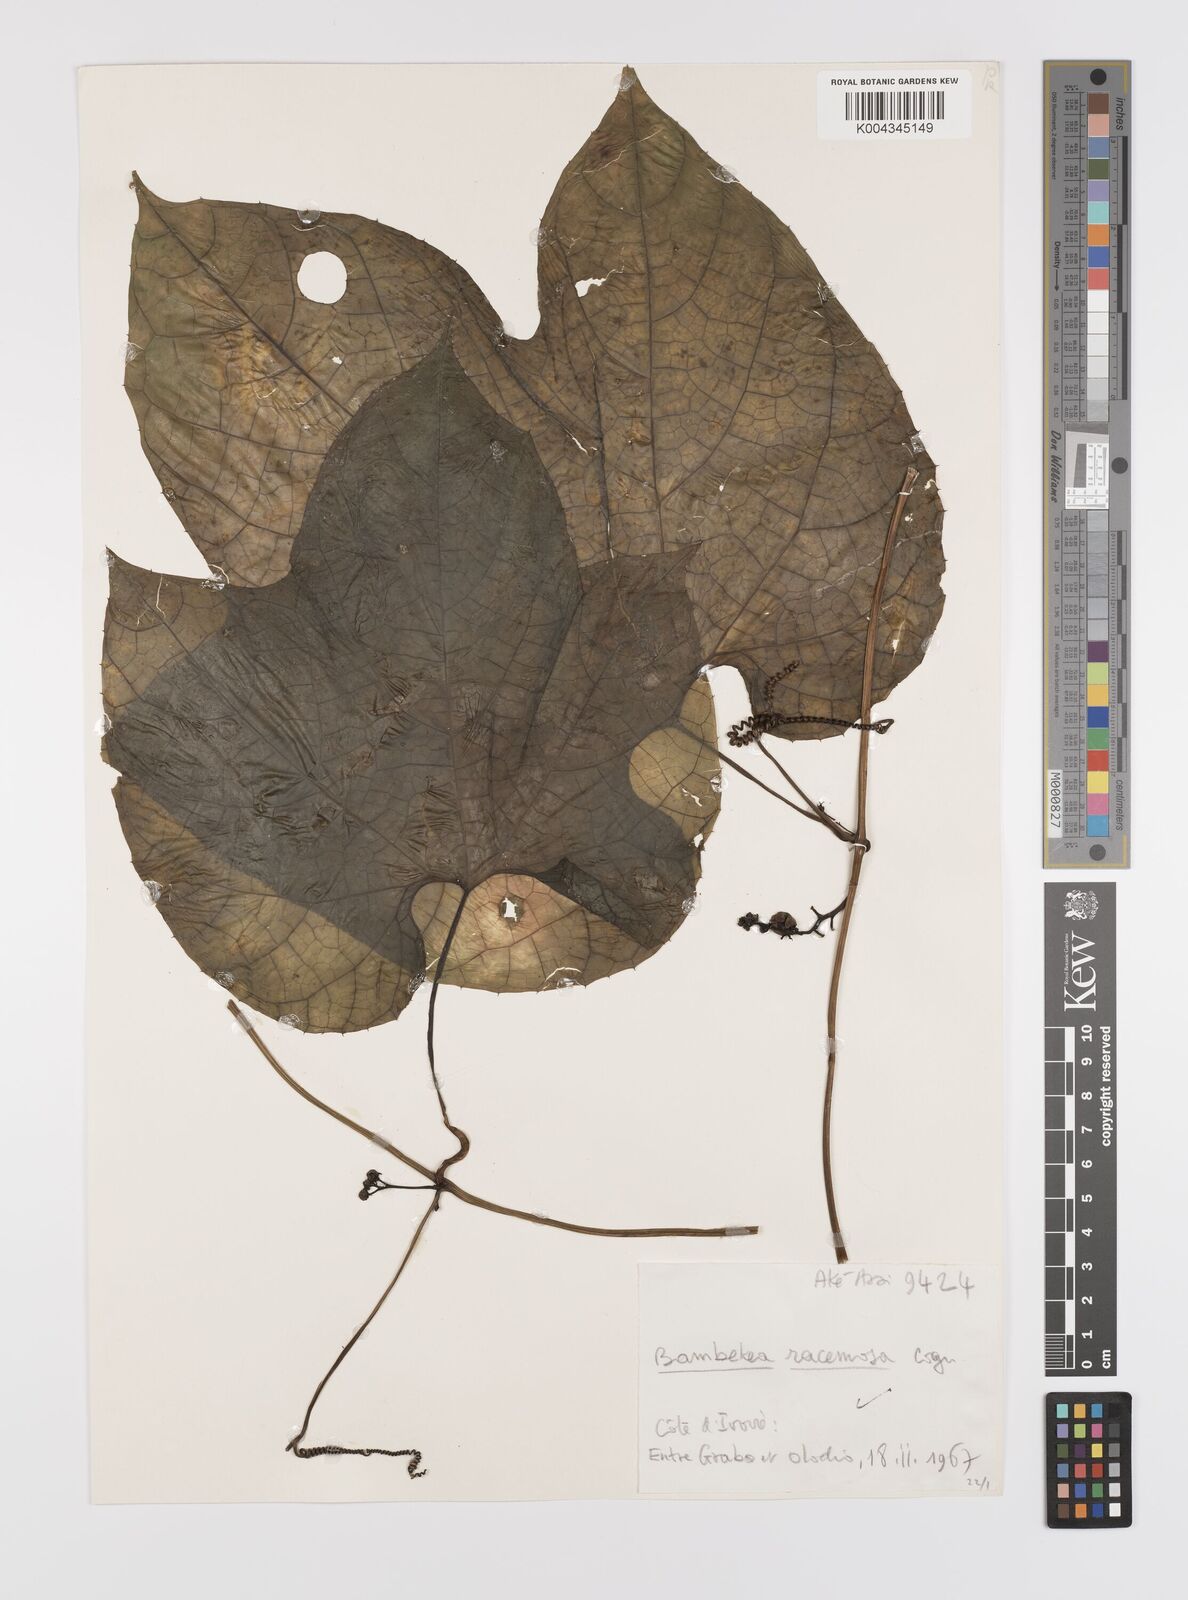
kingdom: Plantae
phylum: Tracheophyta
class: Magnoliopsida
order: Cucurbitales
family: Cucurbitaceae
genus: Bambekea
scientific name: Bambekea racemosa
